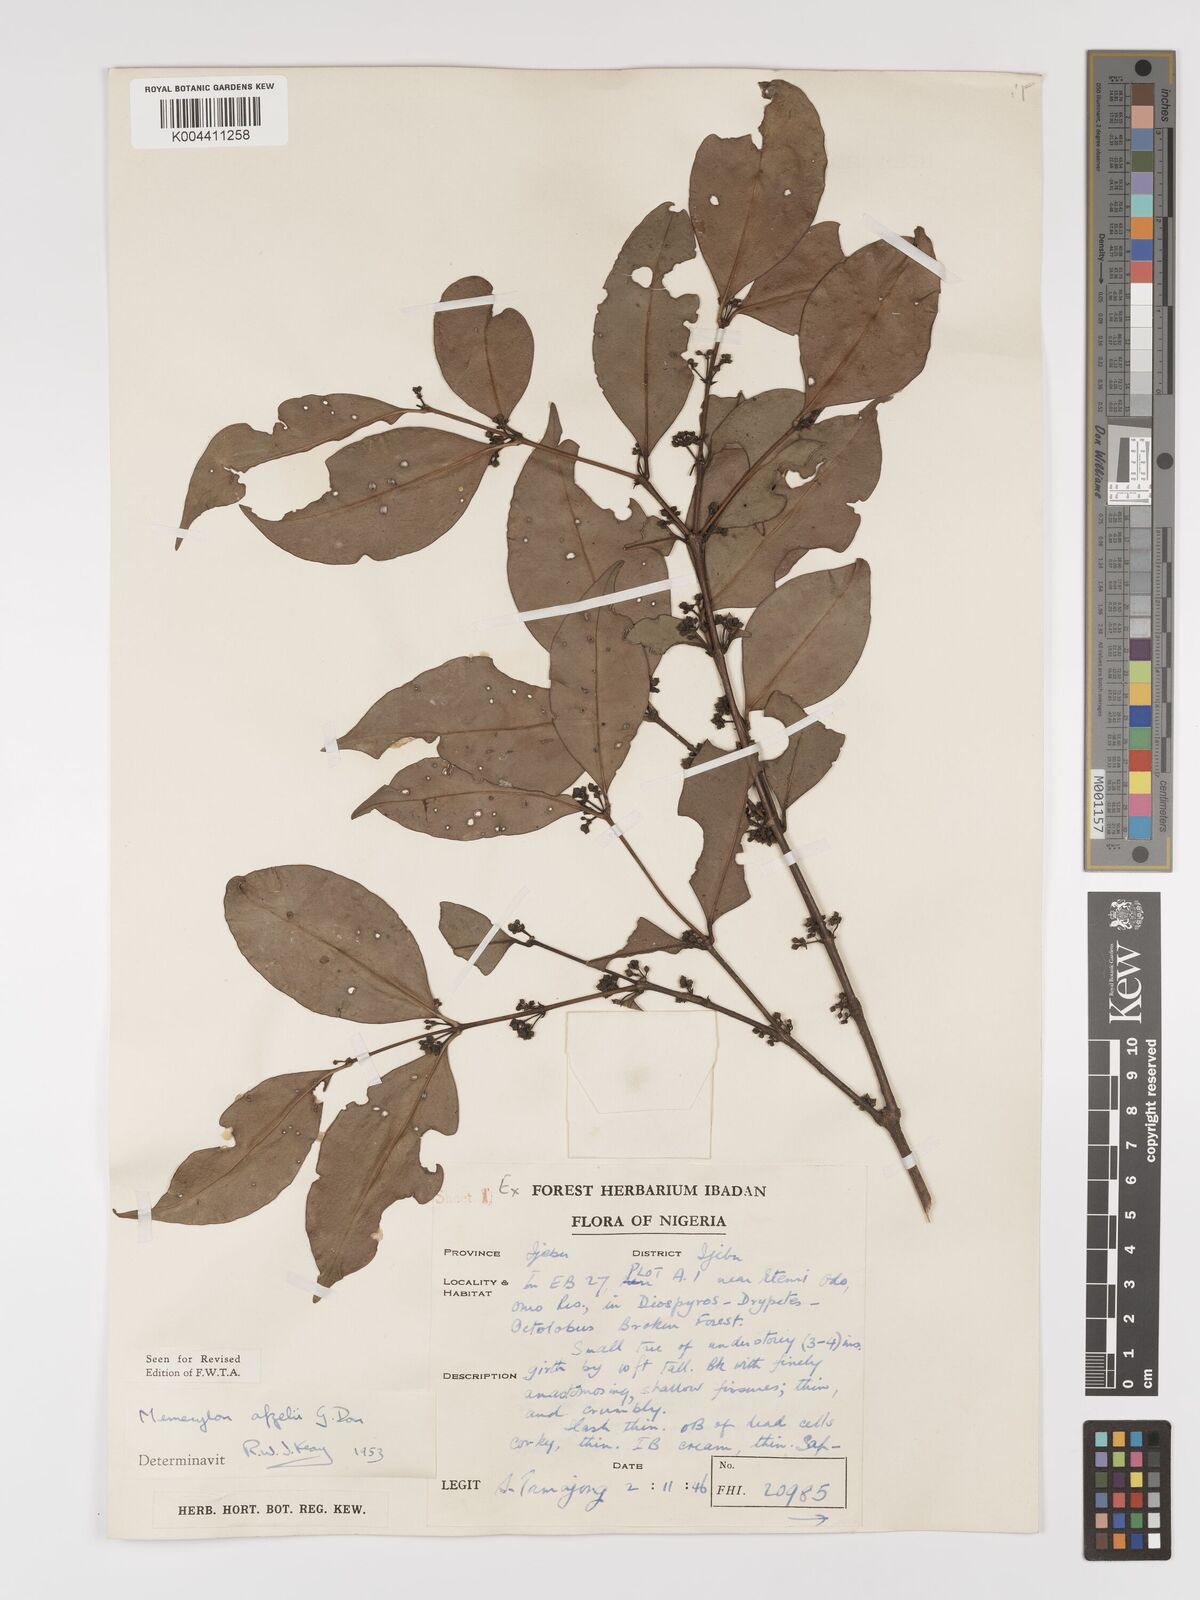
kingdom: Plantae
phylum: Tracheophyta
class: Magnoliopsida
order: Myrtales
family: Melastomataceae
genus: Memecylon
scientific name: Memecylon afzelii
